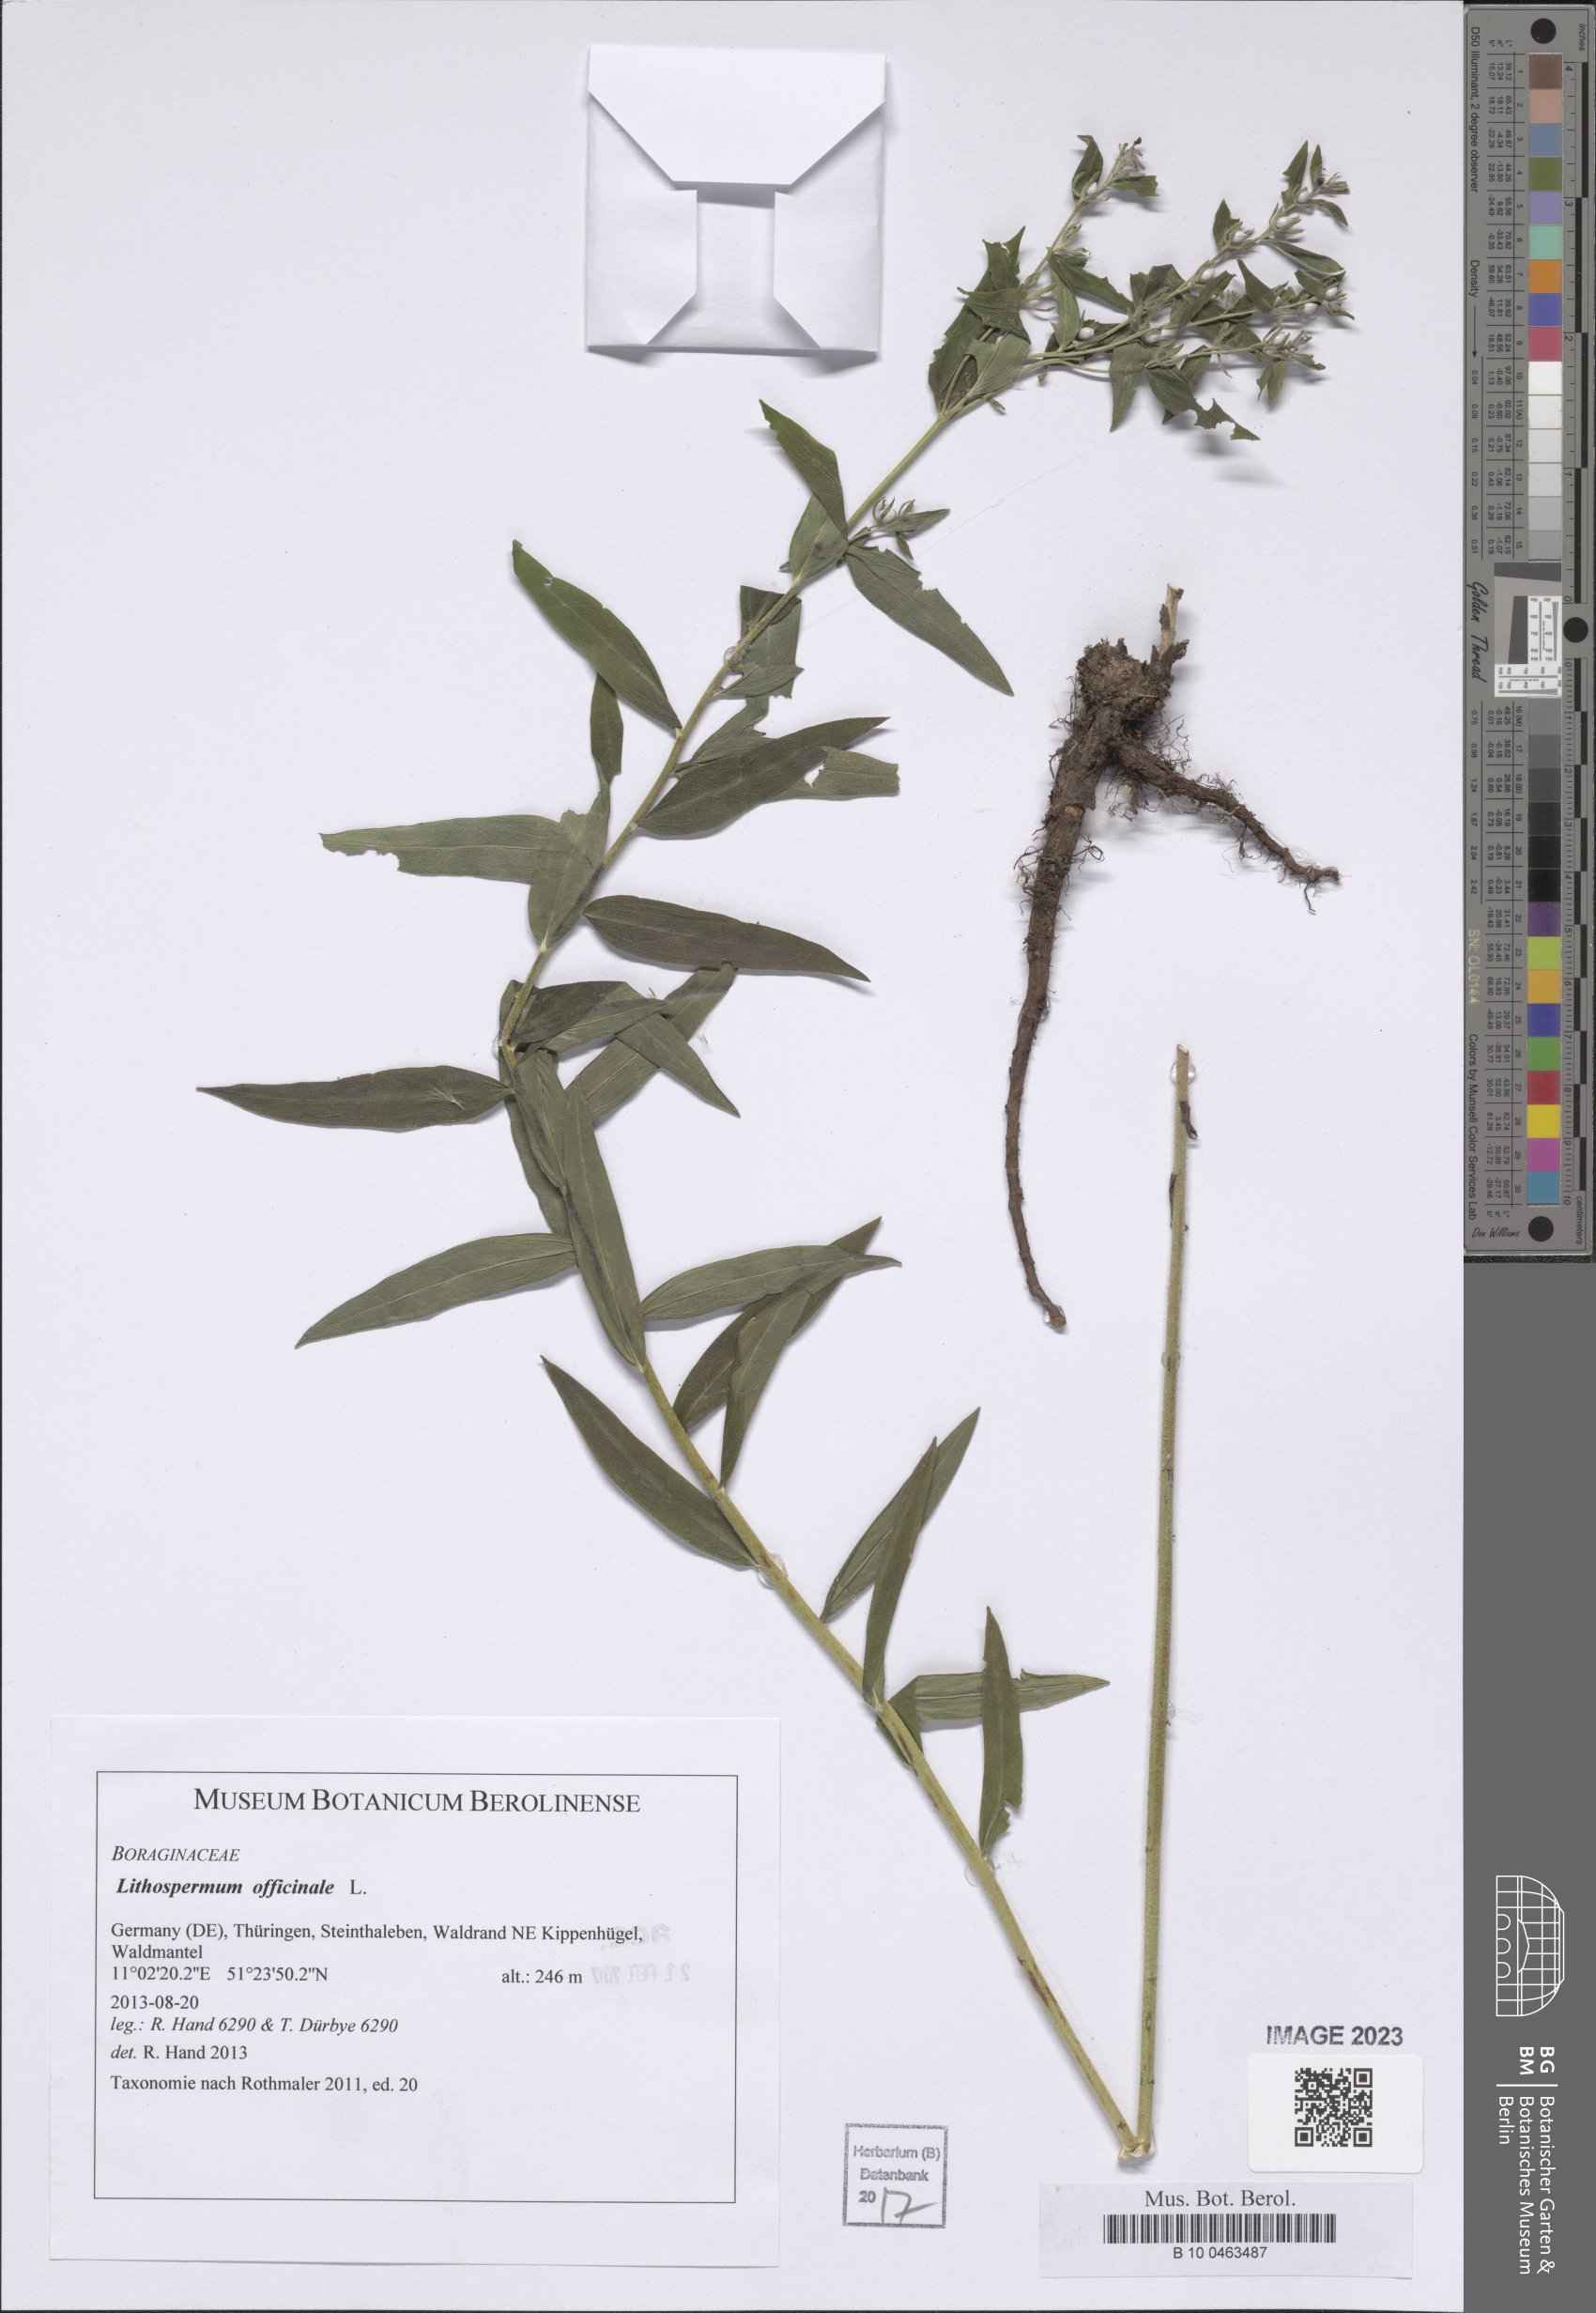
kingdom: Plantae
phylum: Tracheophyta
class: Magnoliopsida
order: Boraginales
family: Boraginaceae
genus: Lithospermum
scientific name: Lithospermum officinale
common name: Common gromwell
